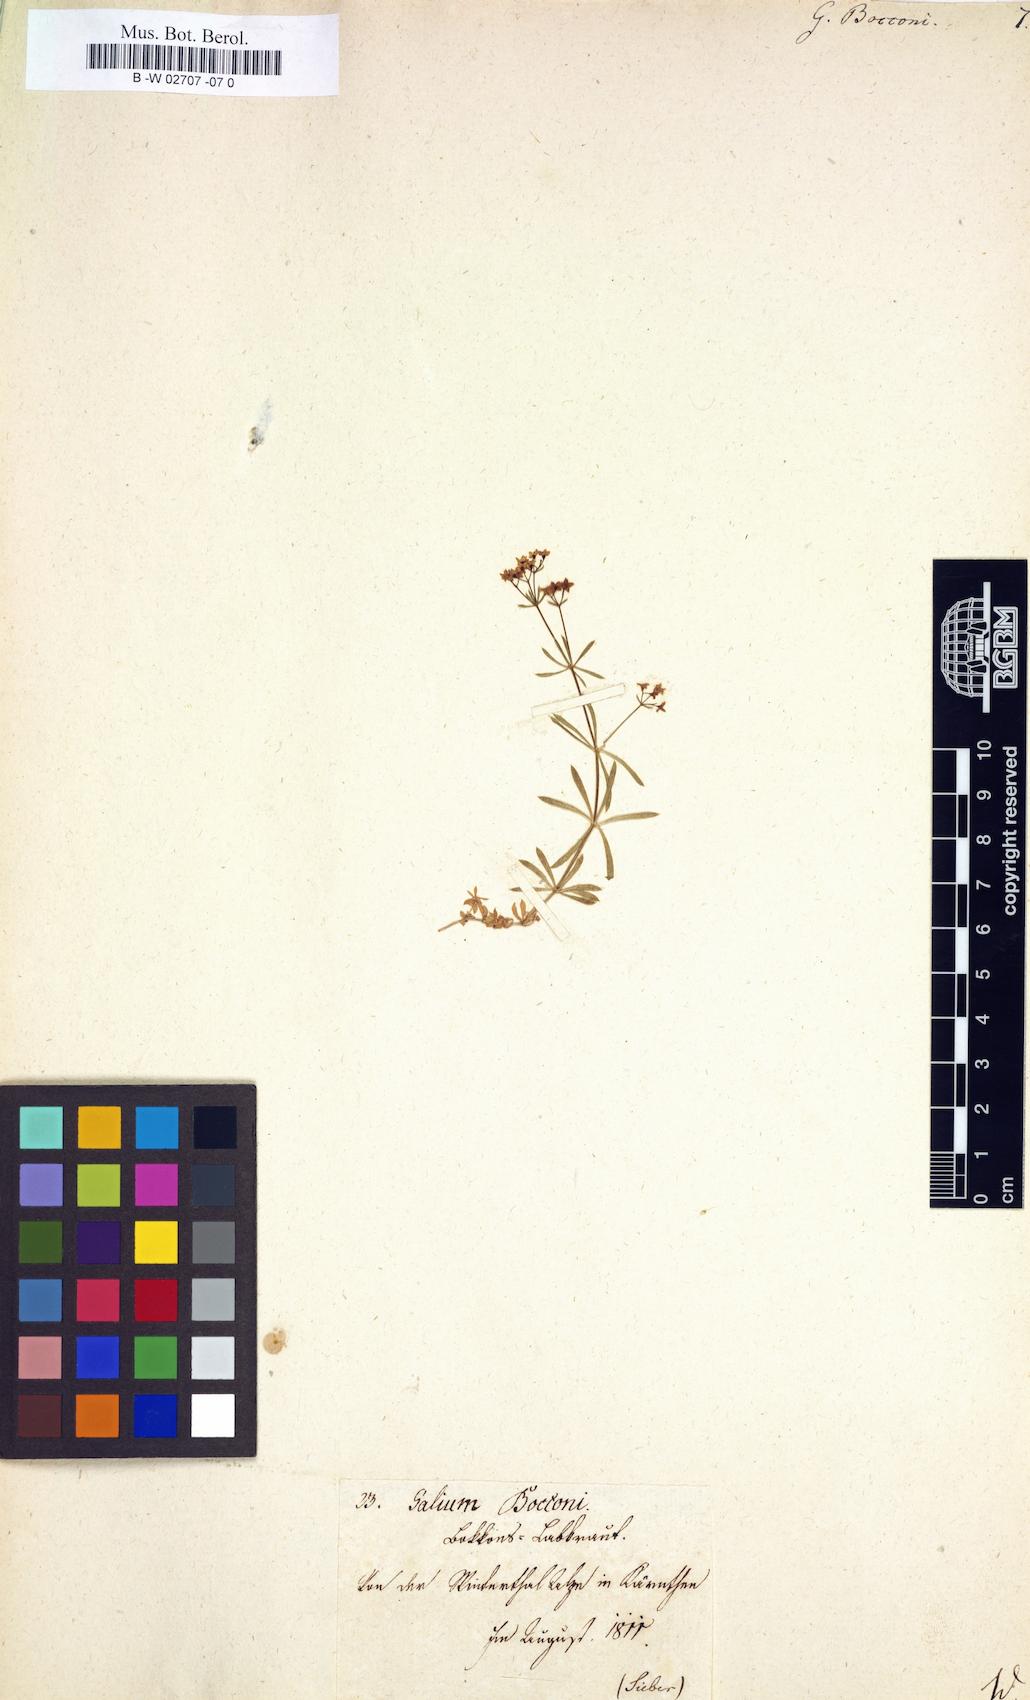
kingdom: Plantae
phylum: Tracheophyta
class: Magnoliopsida
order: Gentianales
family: Rubiaceae
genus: Galium
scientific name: Galium
